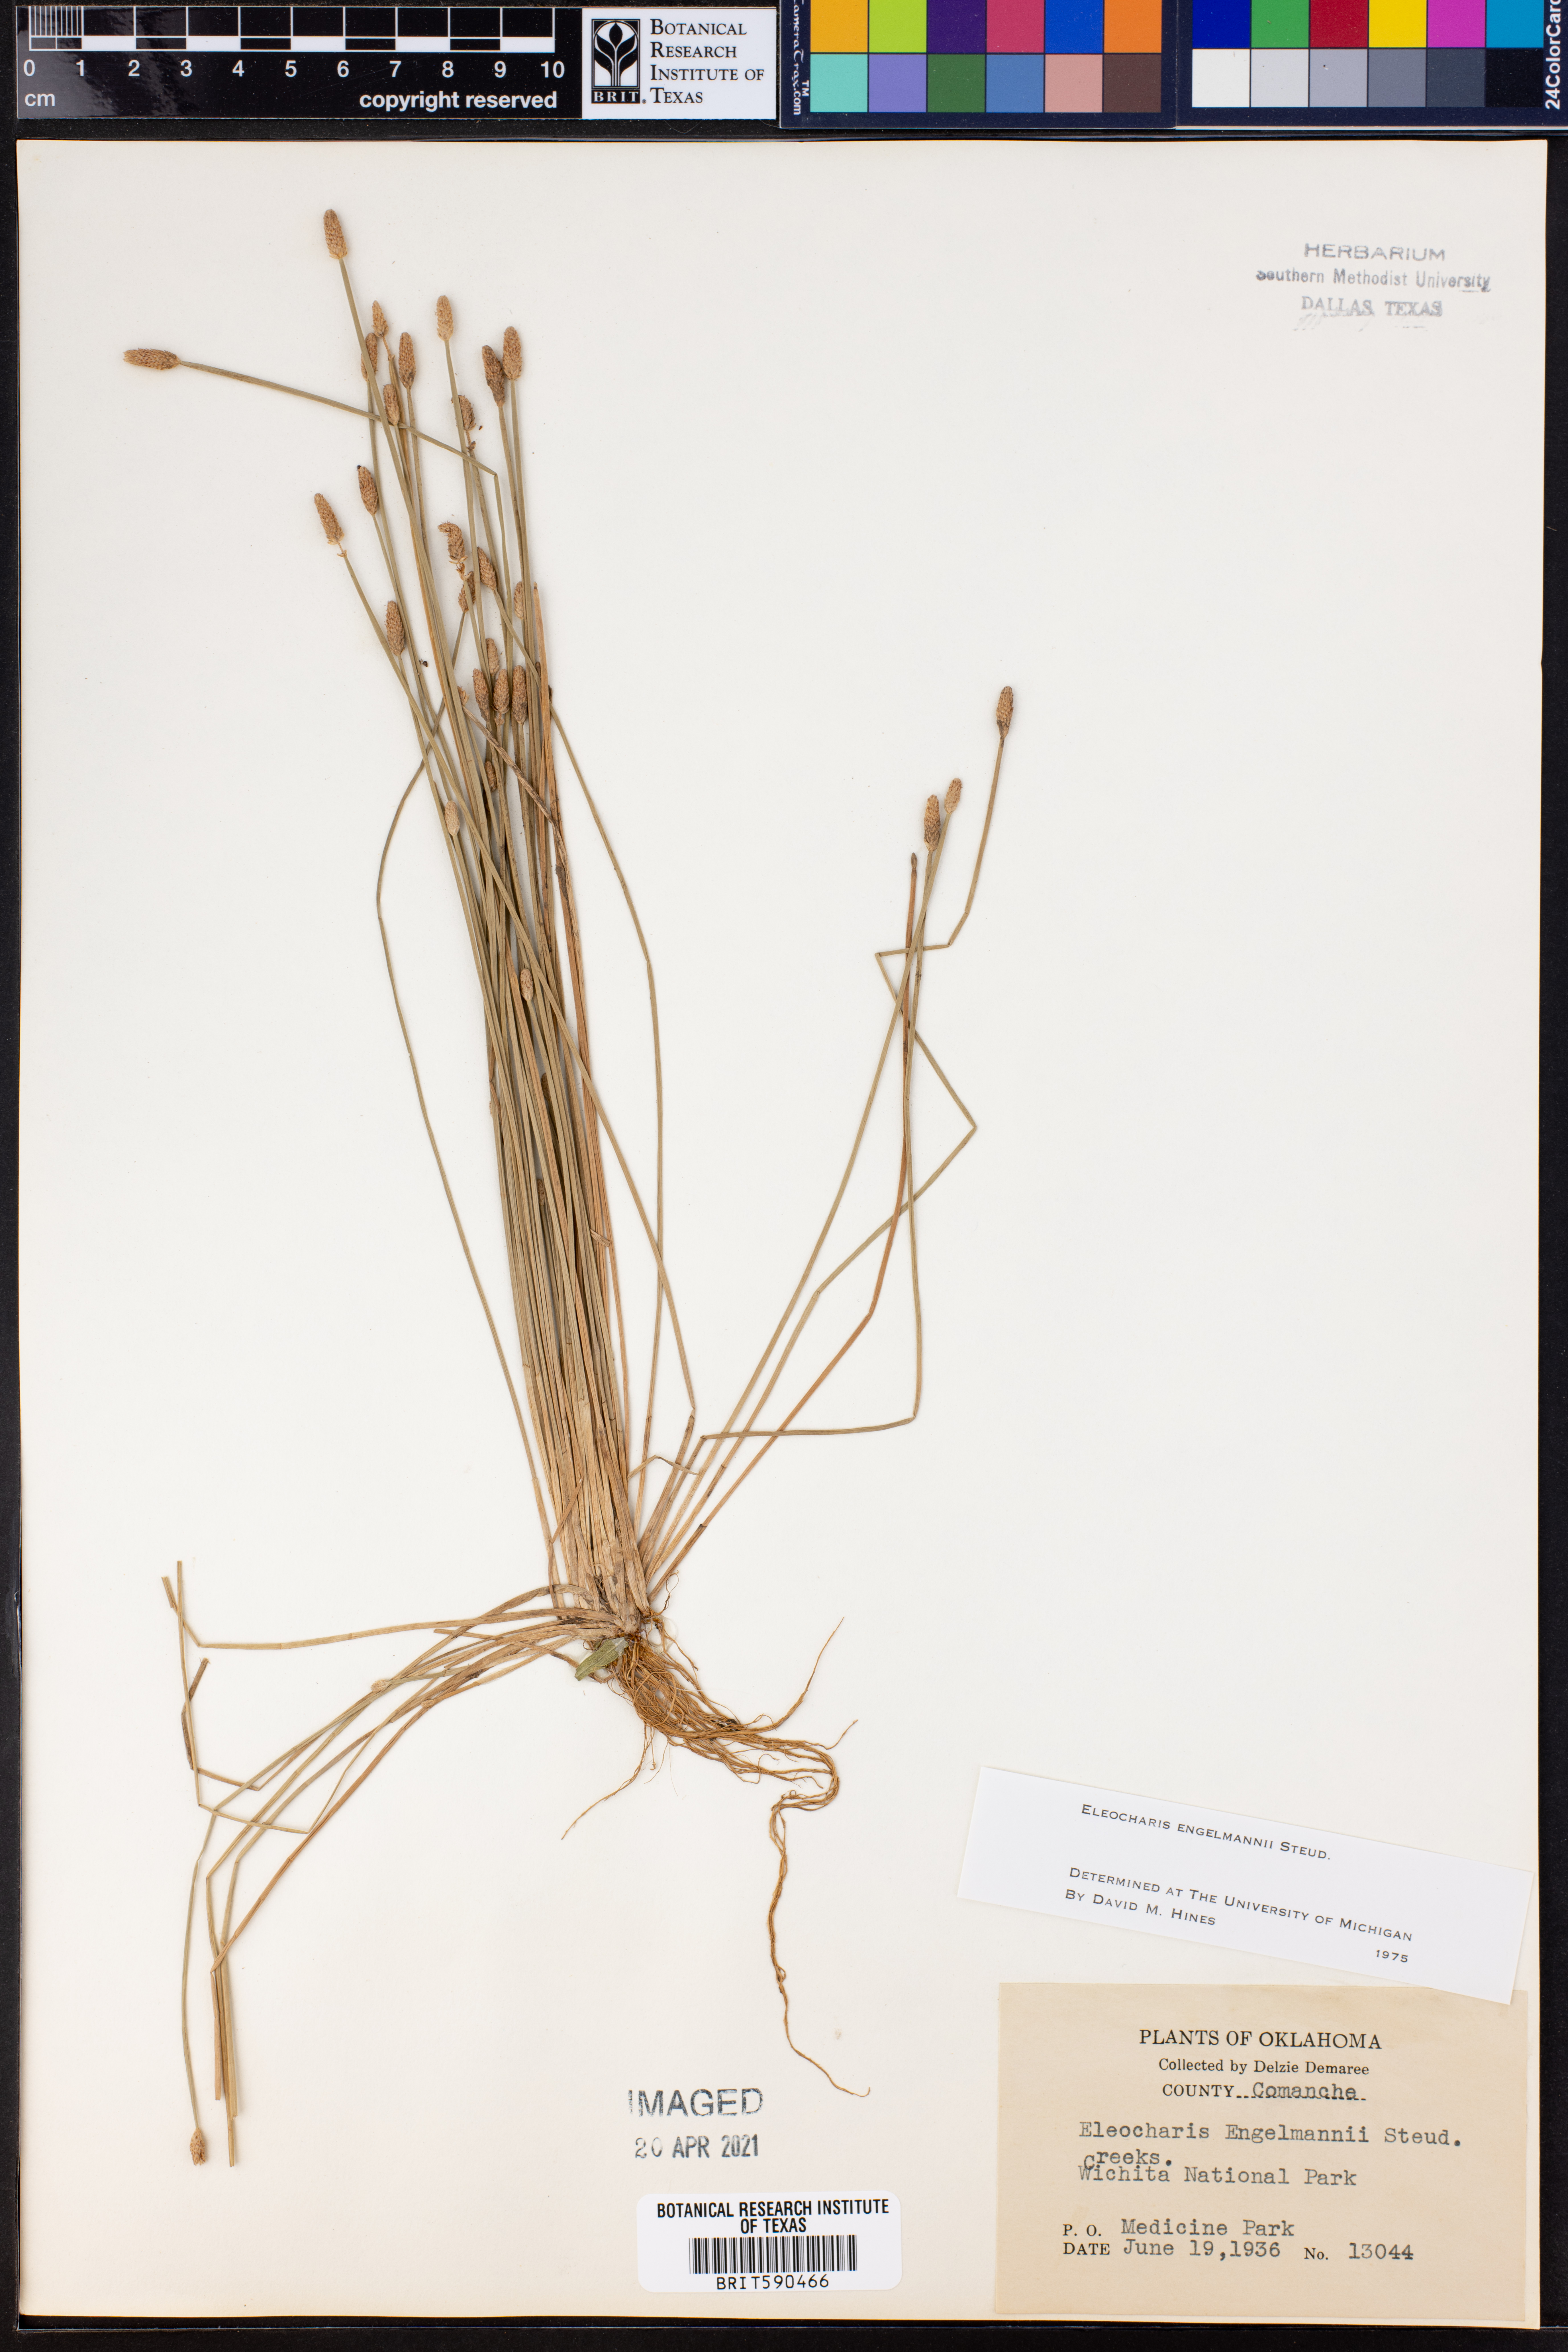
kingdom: Plantae
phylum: Tracheophyta
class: Liliopsida
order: Poales
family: Cyperaceae
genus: Eleocharis
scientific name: Eleocharis engelmannii
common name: Engelmann's spikerush
